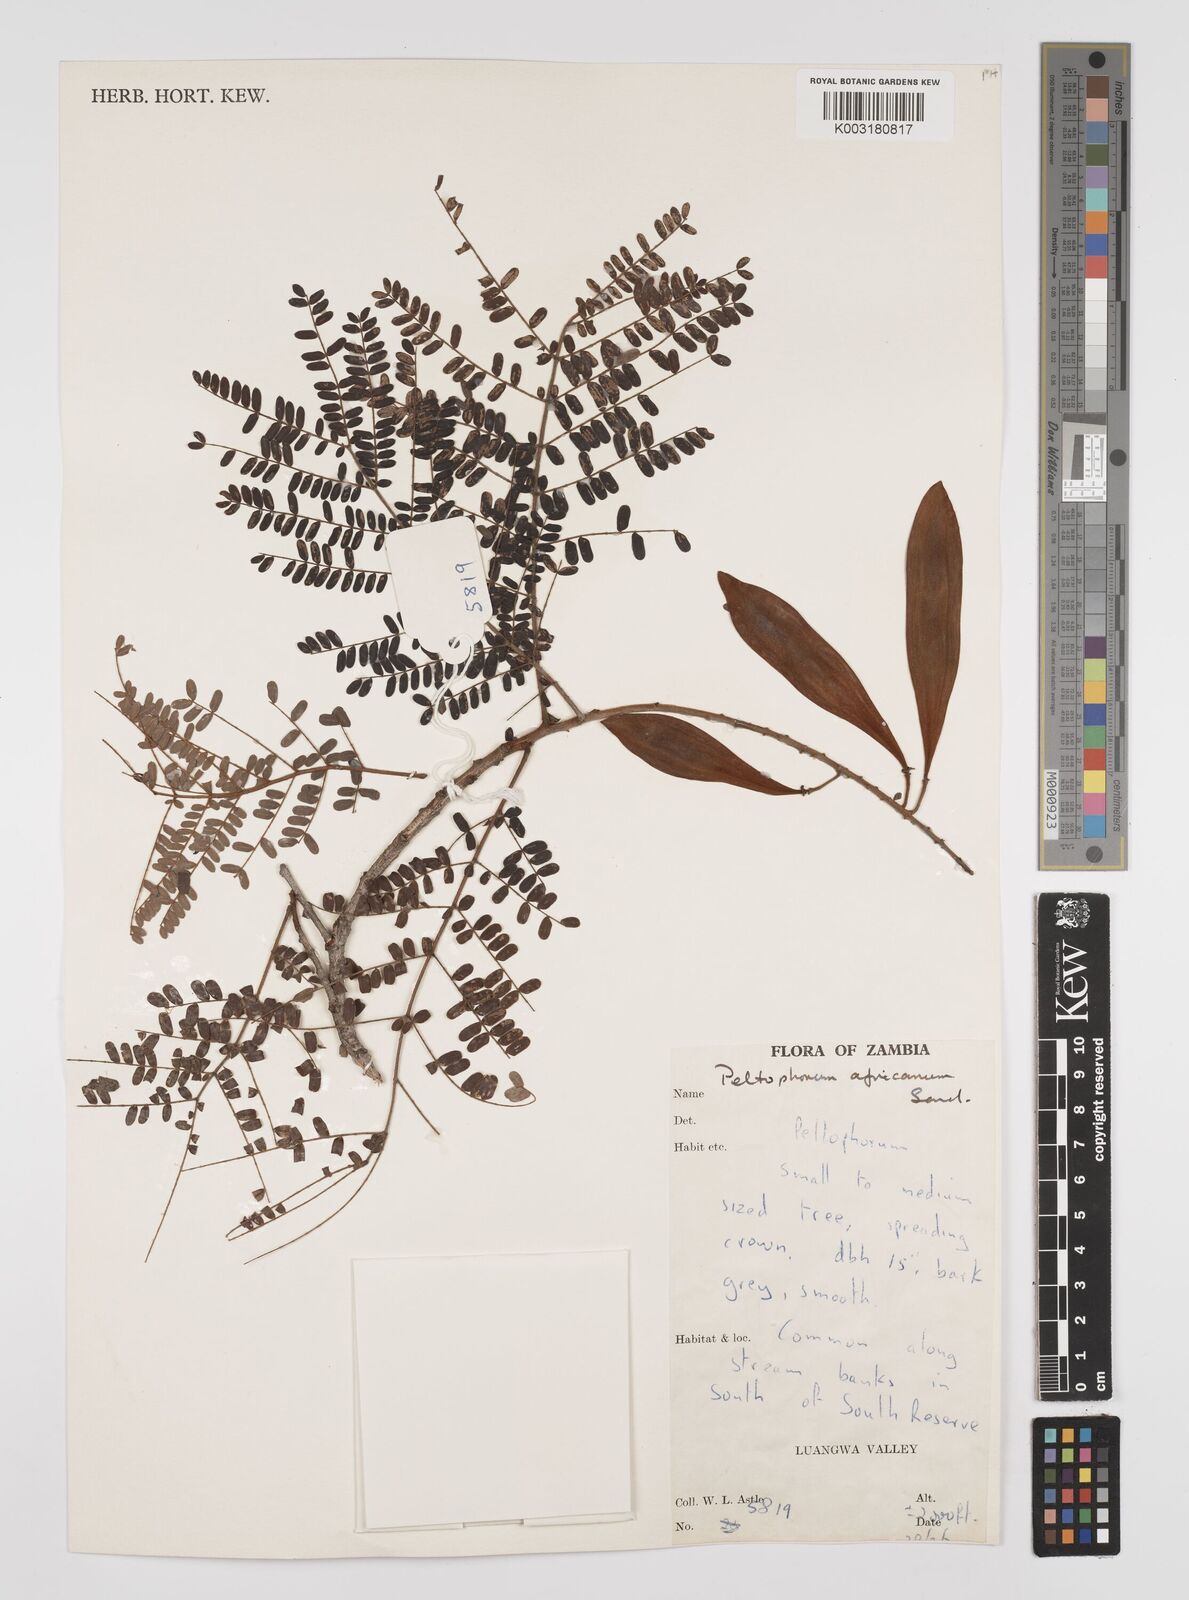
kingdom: Plantae
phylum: Tracheophyta
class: Magnoliopsida
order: Fabales
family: Fabaceae
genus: Peltophorum
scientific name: Peltophorum africanum
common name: African black wattle
